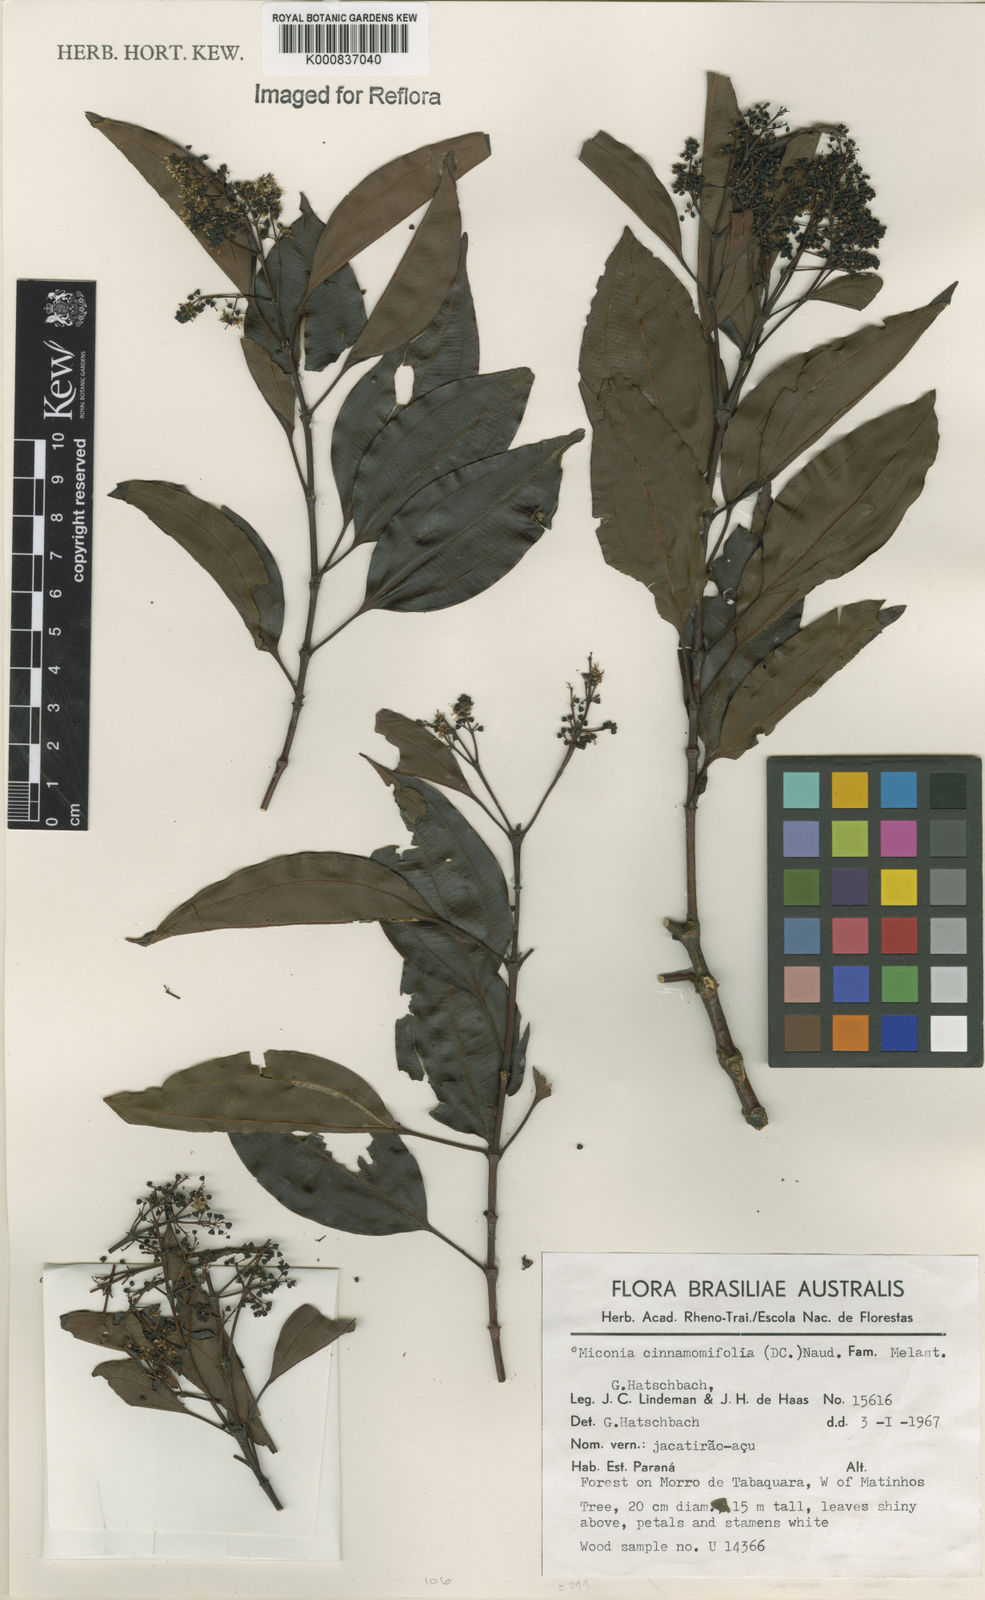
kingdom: Plantae
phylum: Tracheophyta
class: Magnoliopsida
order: Myrtales
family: Melastomataceae
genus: Miconia
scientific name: Miconia cinnamomifolia
